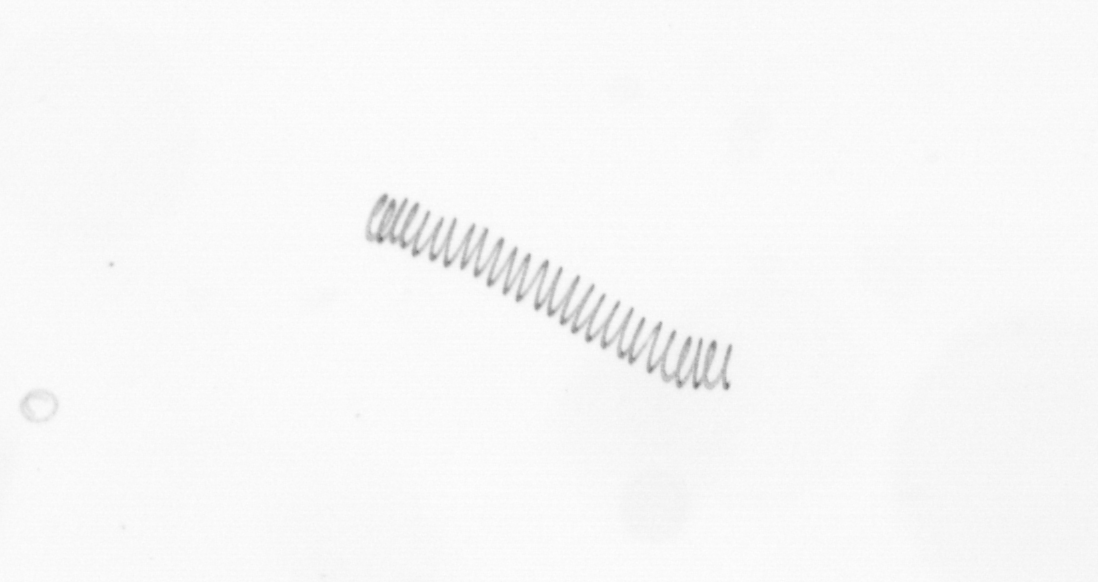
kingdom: Chromista
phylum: Ochrophyta
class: Bacillariophyceae
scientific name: Bacillariophyceae
